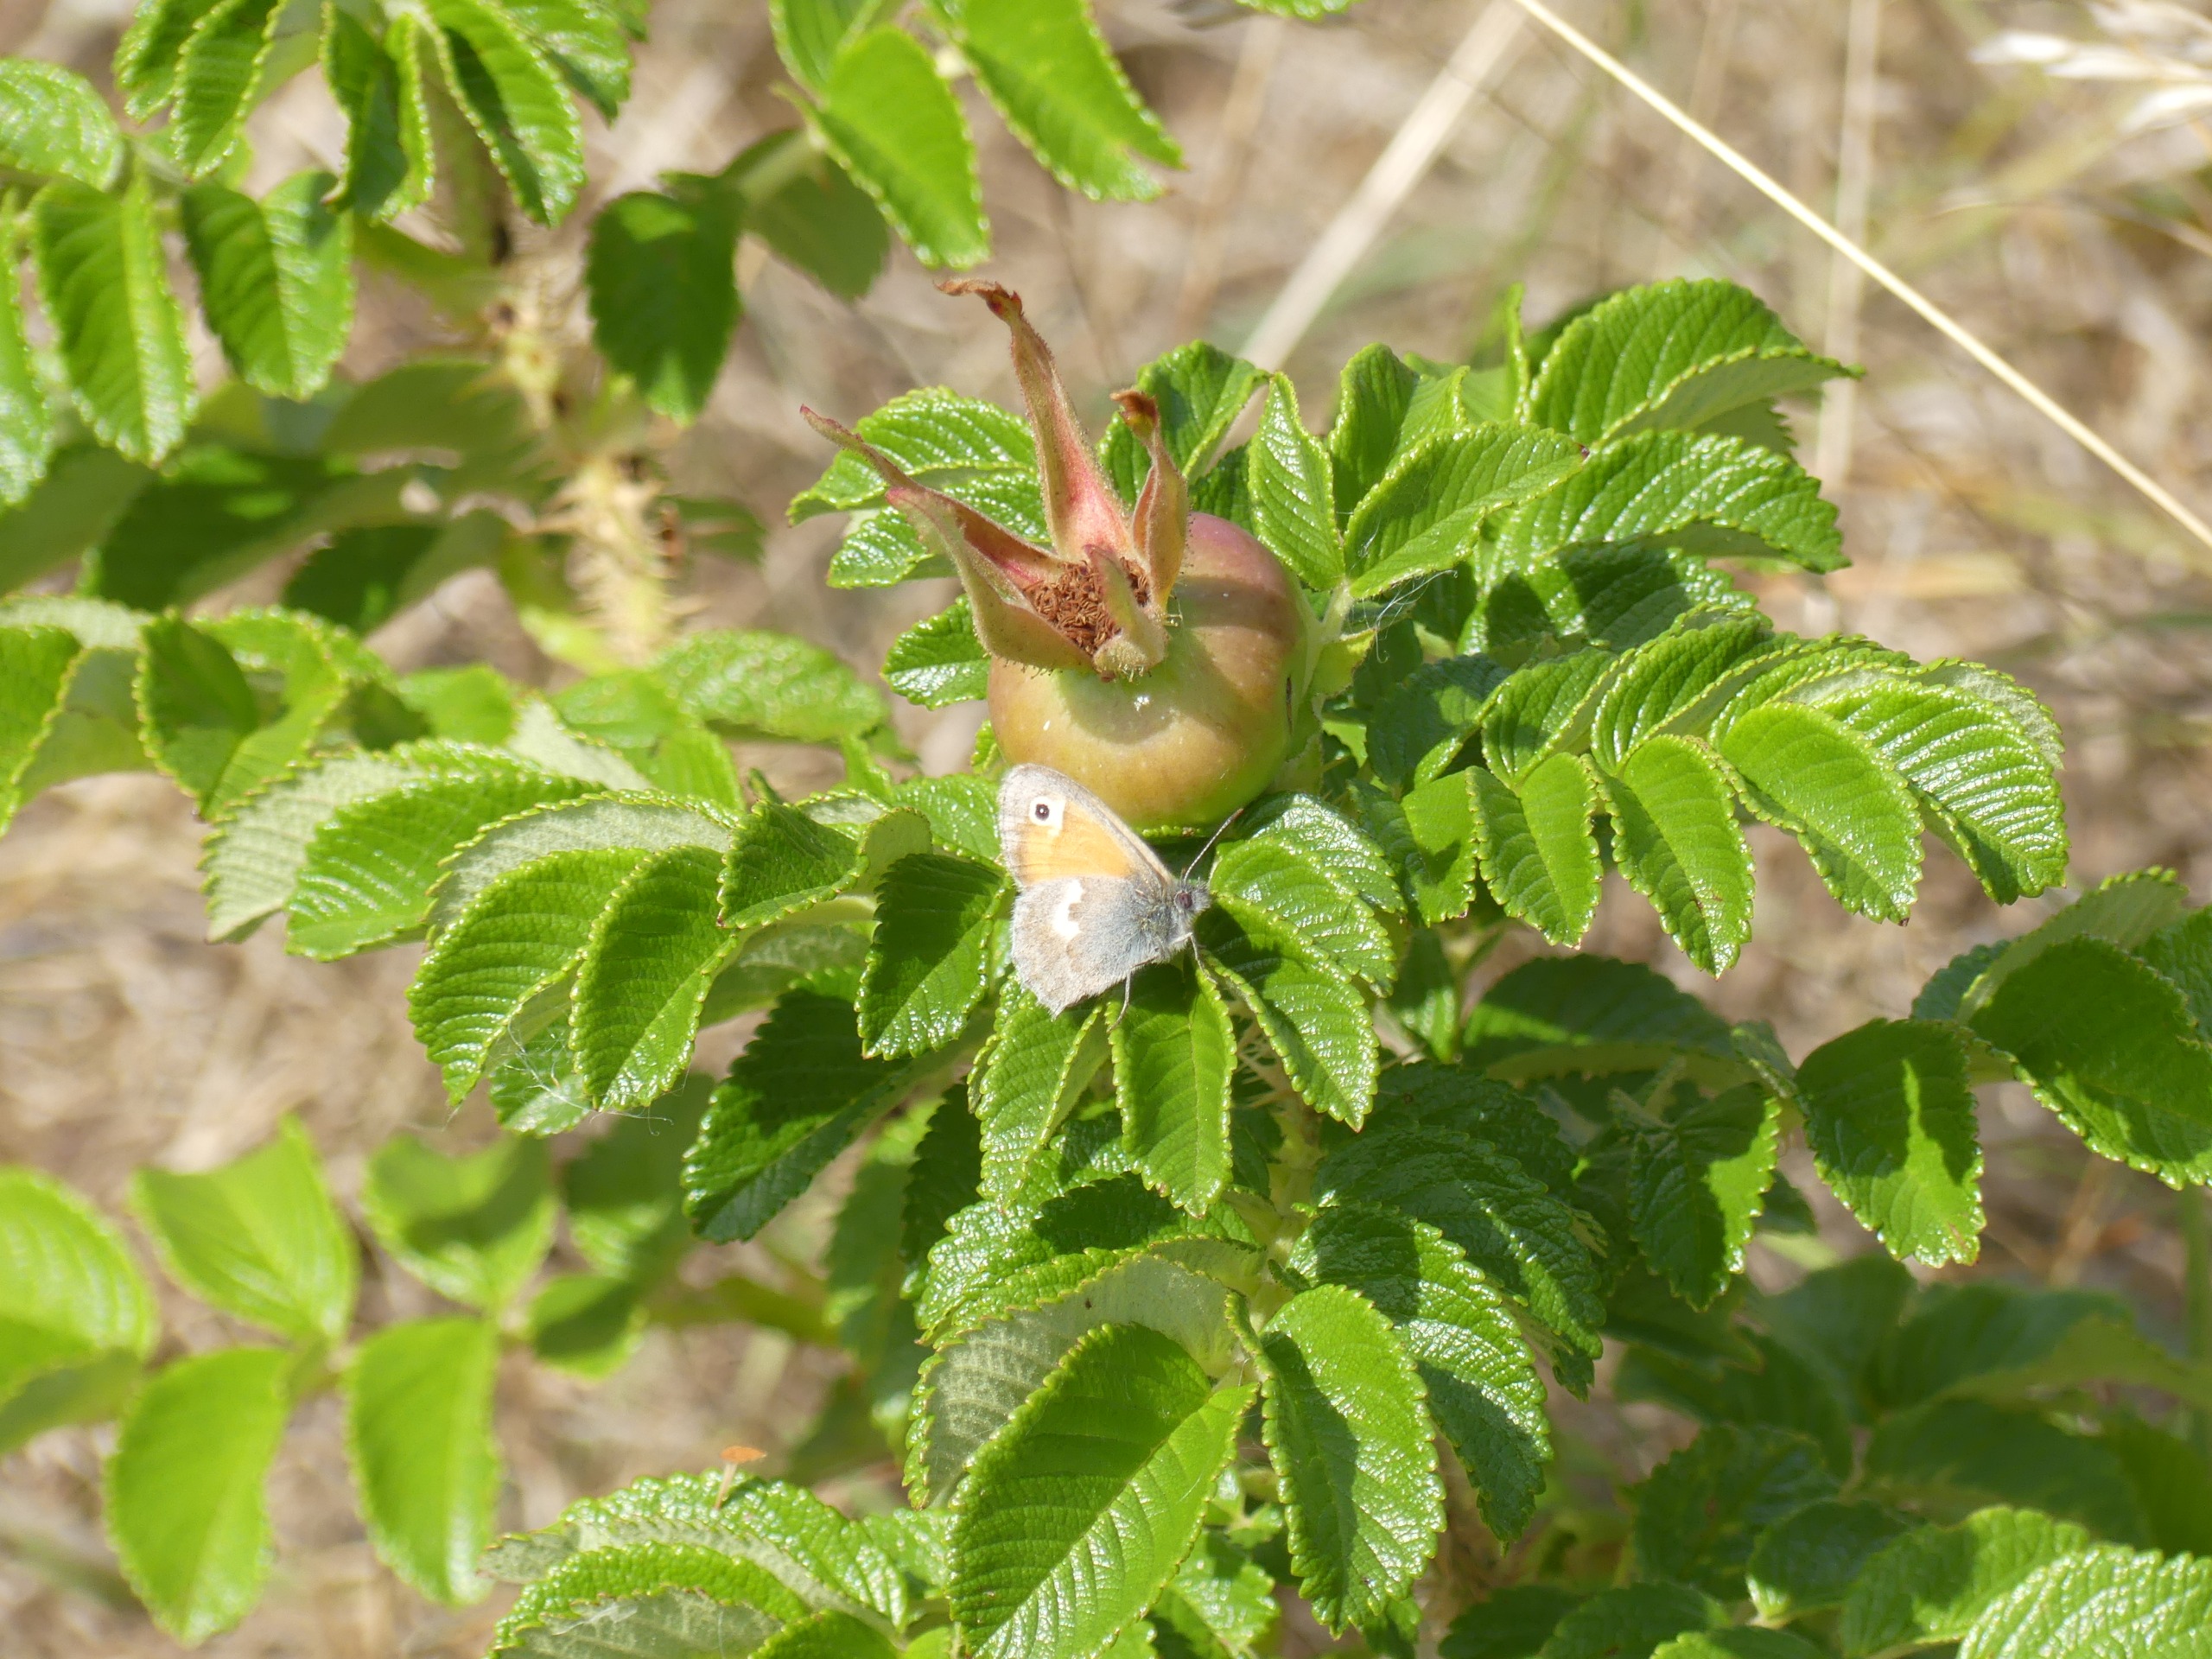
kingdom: Animalia
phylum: Arthropoda
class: Insecta
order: Lepidoptera
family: Nymphalidae
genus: Coenonympha
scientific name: Coenonympha pamphilus
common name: Okkergul randøje
